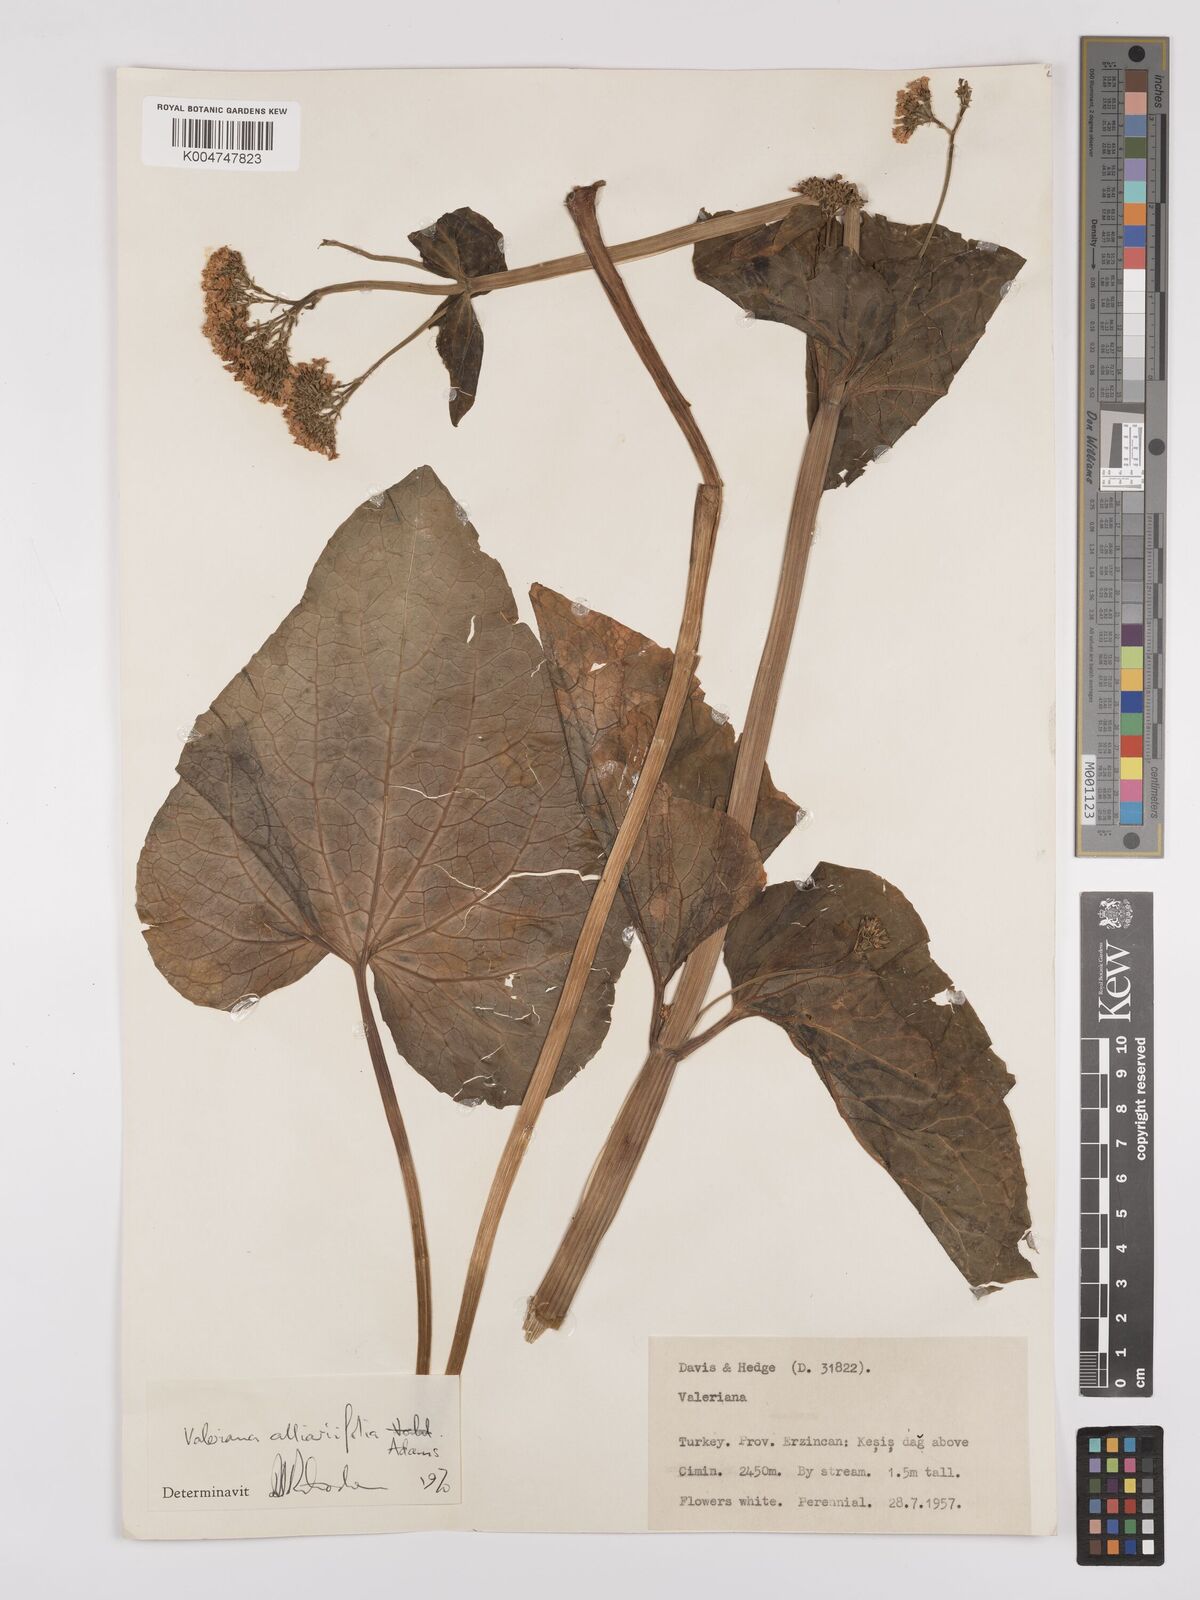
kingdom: Plantae
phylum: Tracheophyta
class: Magnoliopsida
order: Dipsacales
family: Caprifoliaceae
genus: Valeriana
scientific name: Valeriana
